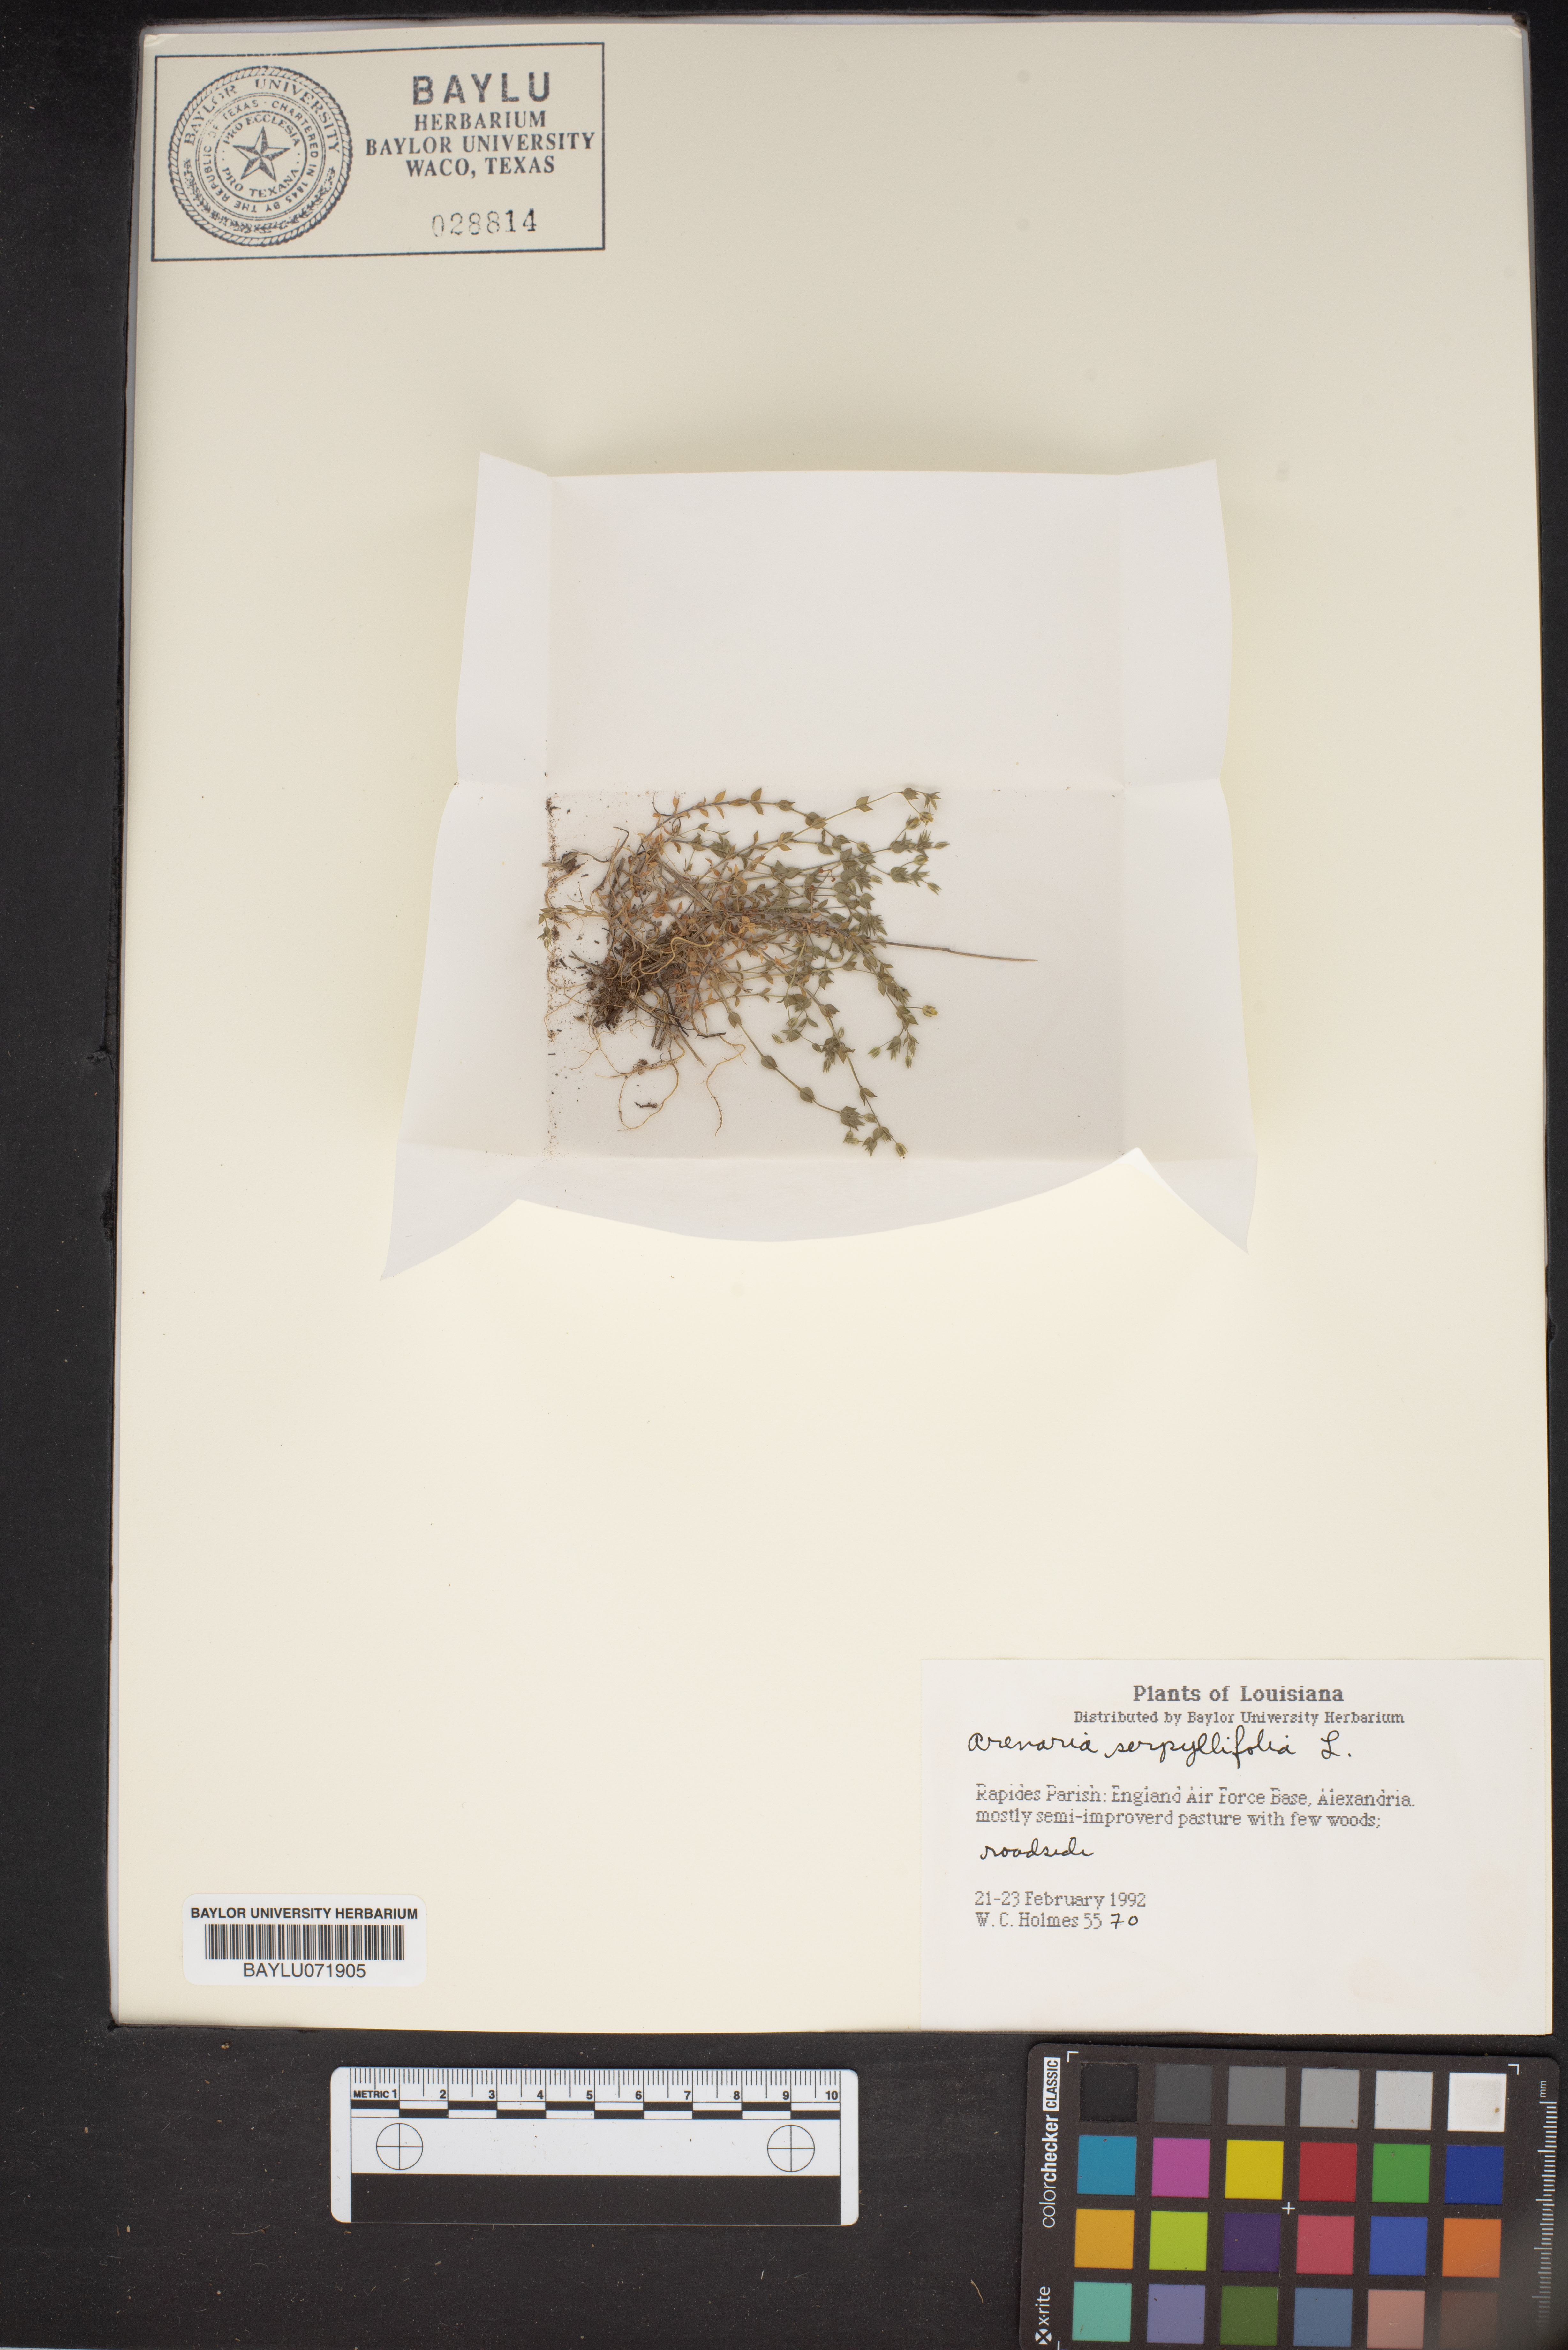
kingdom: Plantae
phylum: Tracheophyta
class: Magnoliopsida
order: Caryophyllales
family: Caryophyllaceae
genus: Arenaria
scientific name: Arenaria serpyllifolia
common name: Thyme-leaved sandwort
